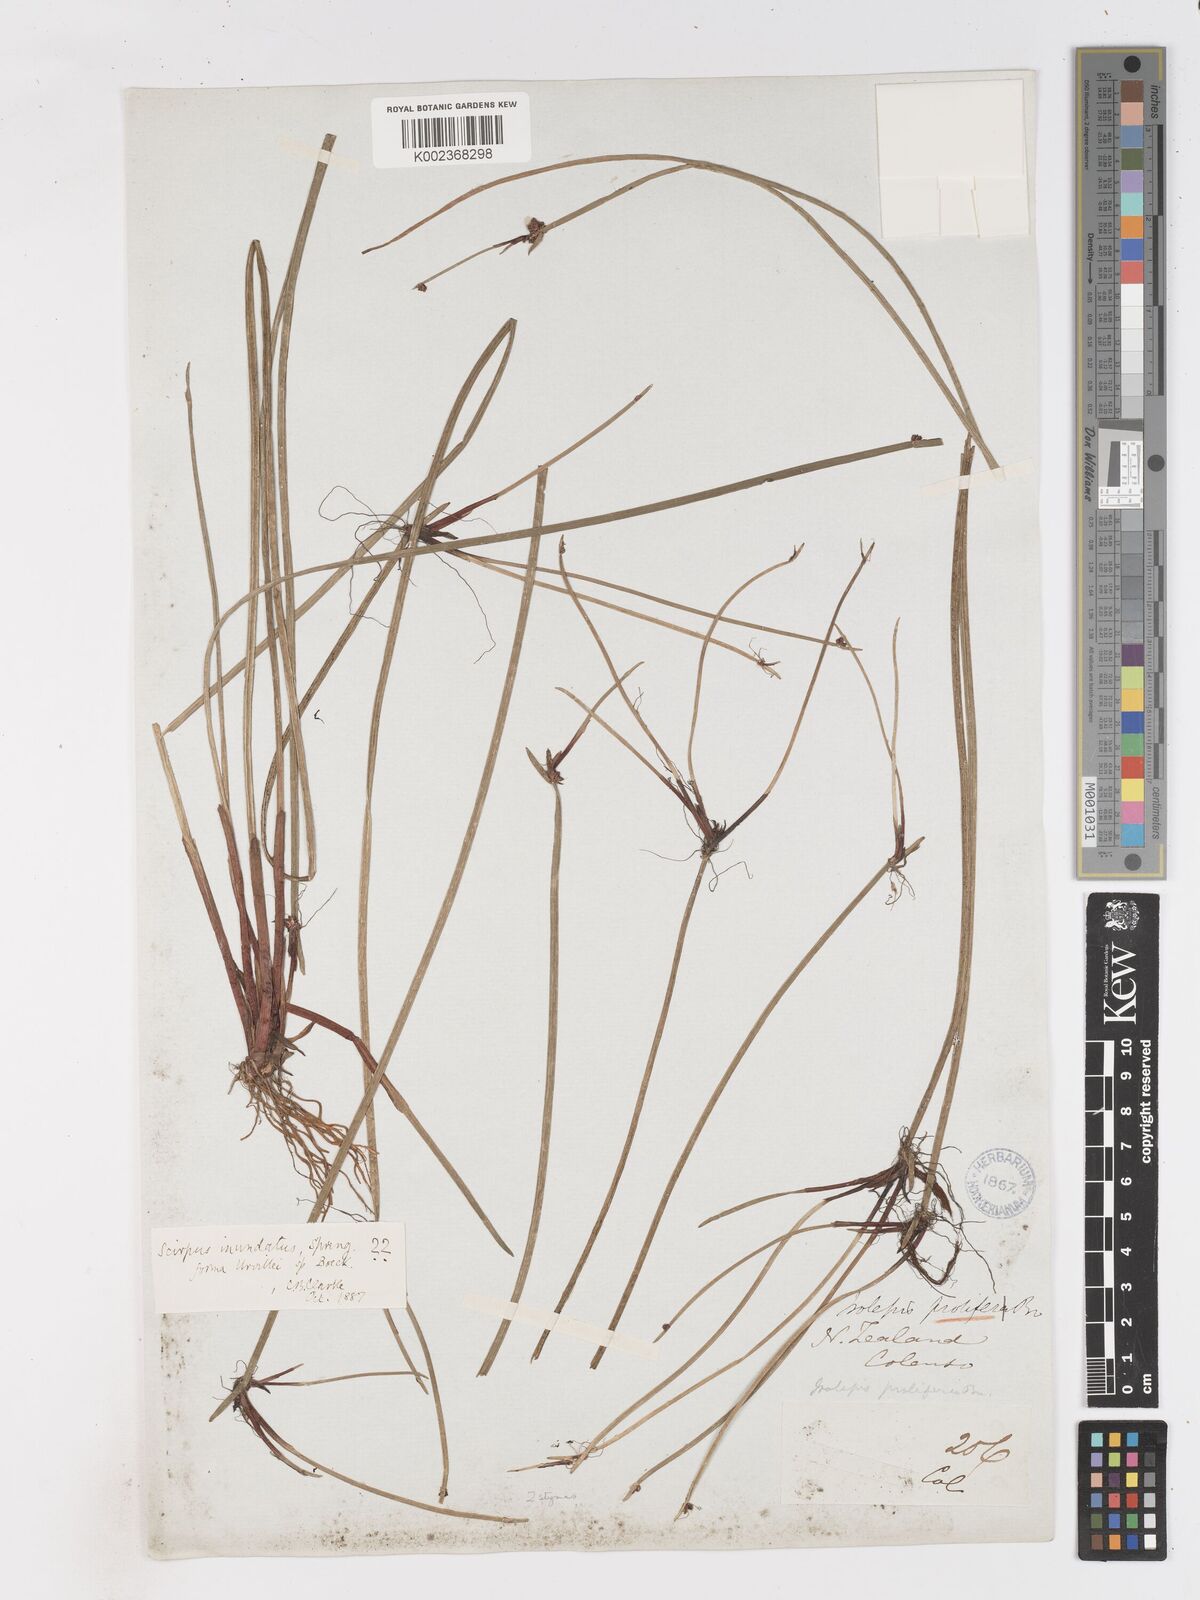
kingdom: Plantae
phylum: Tracheophyta
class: Liliopsida
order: Poales
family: Cyperaceae
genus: Isolepis
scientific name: Isolepis inundata
